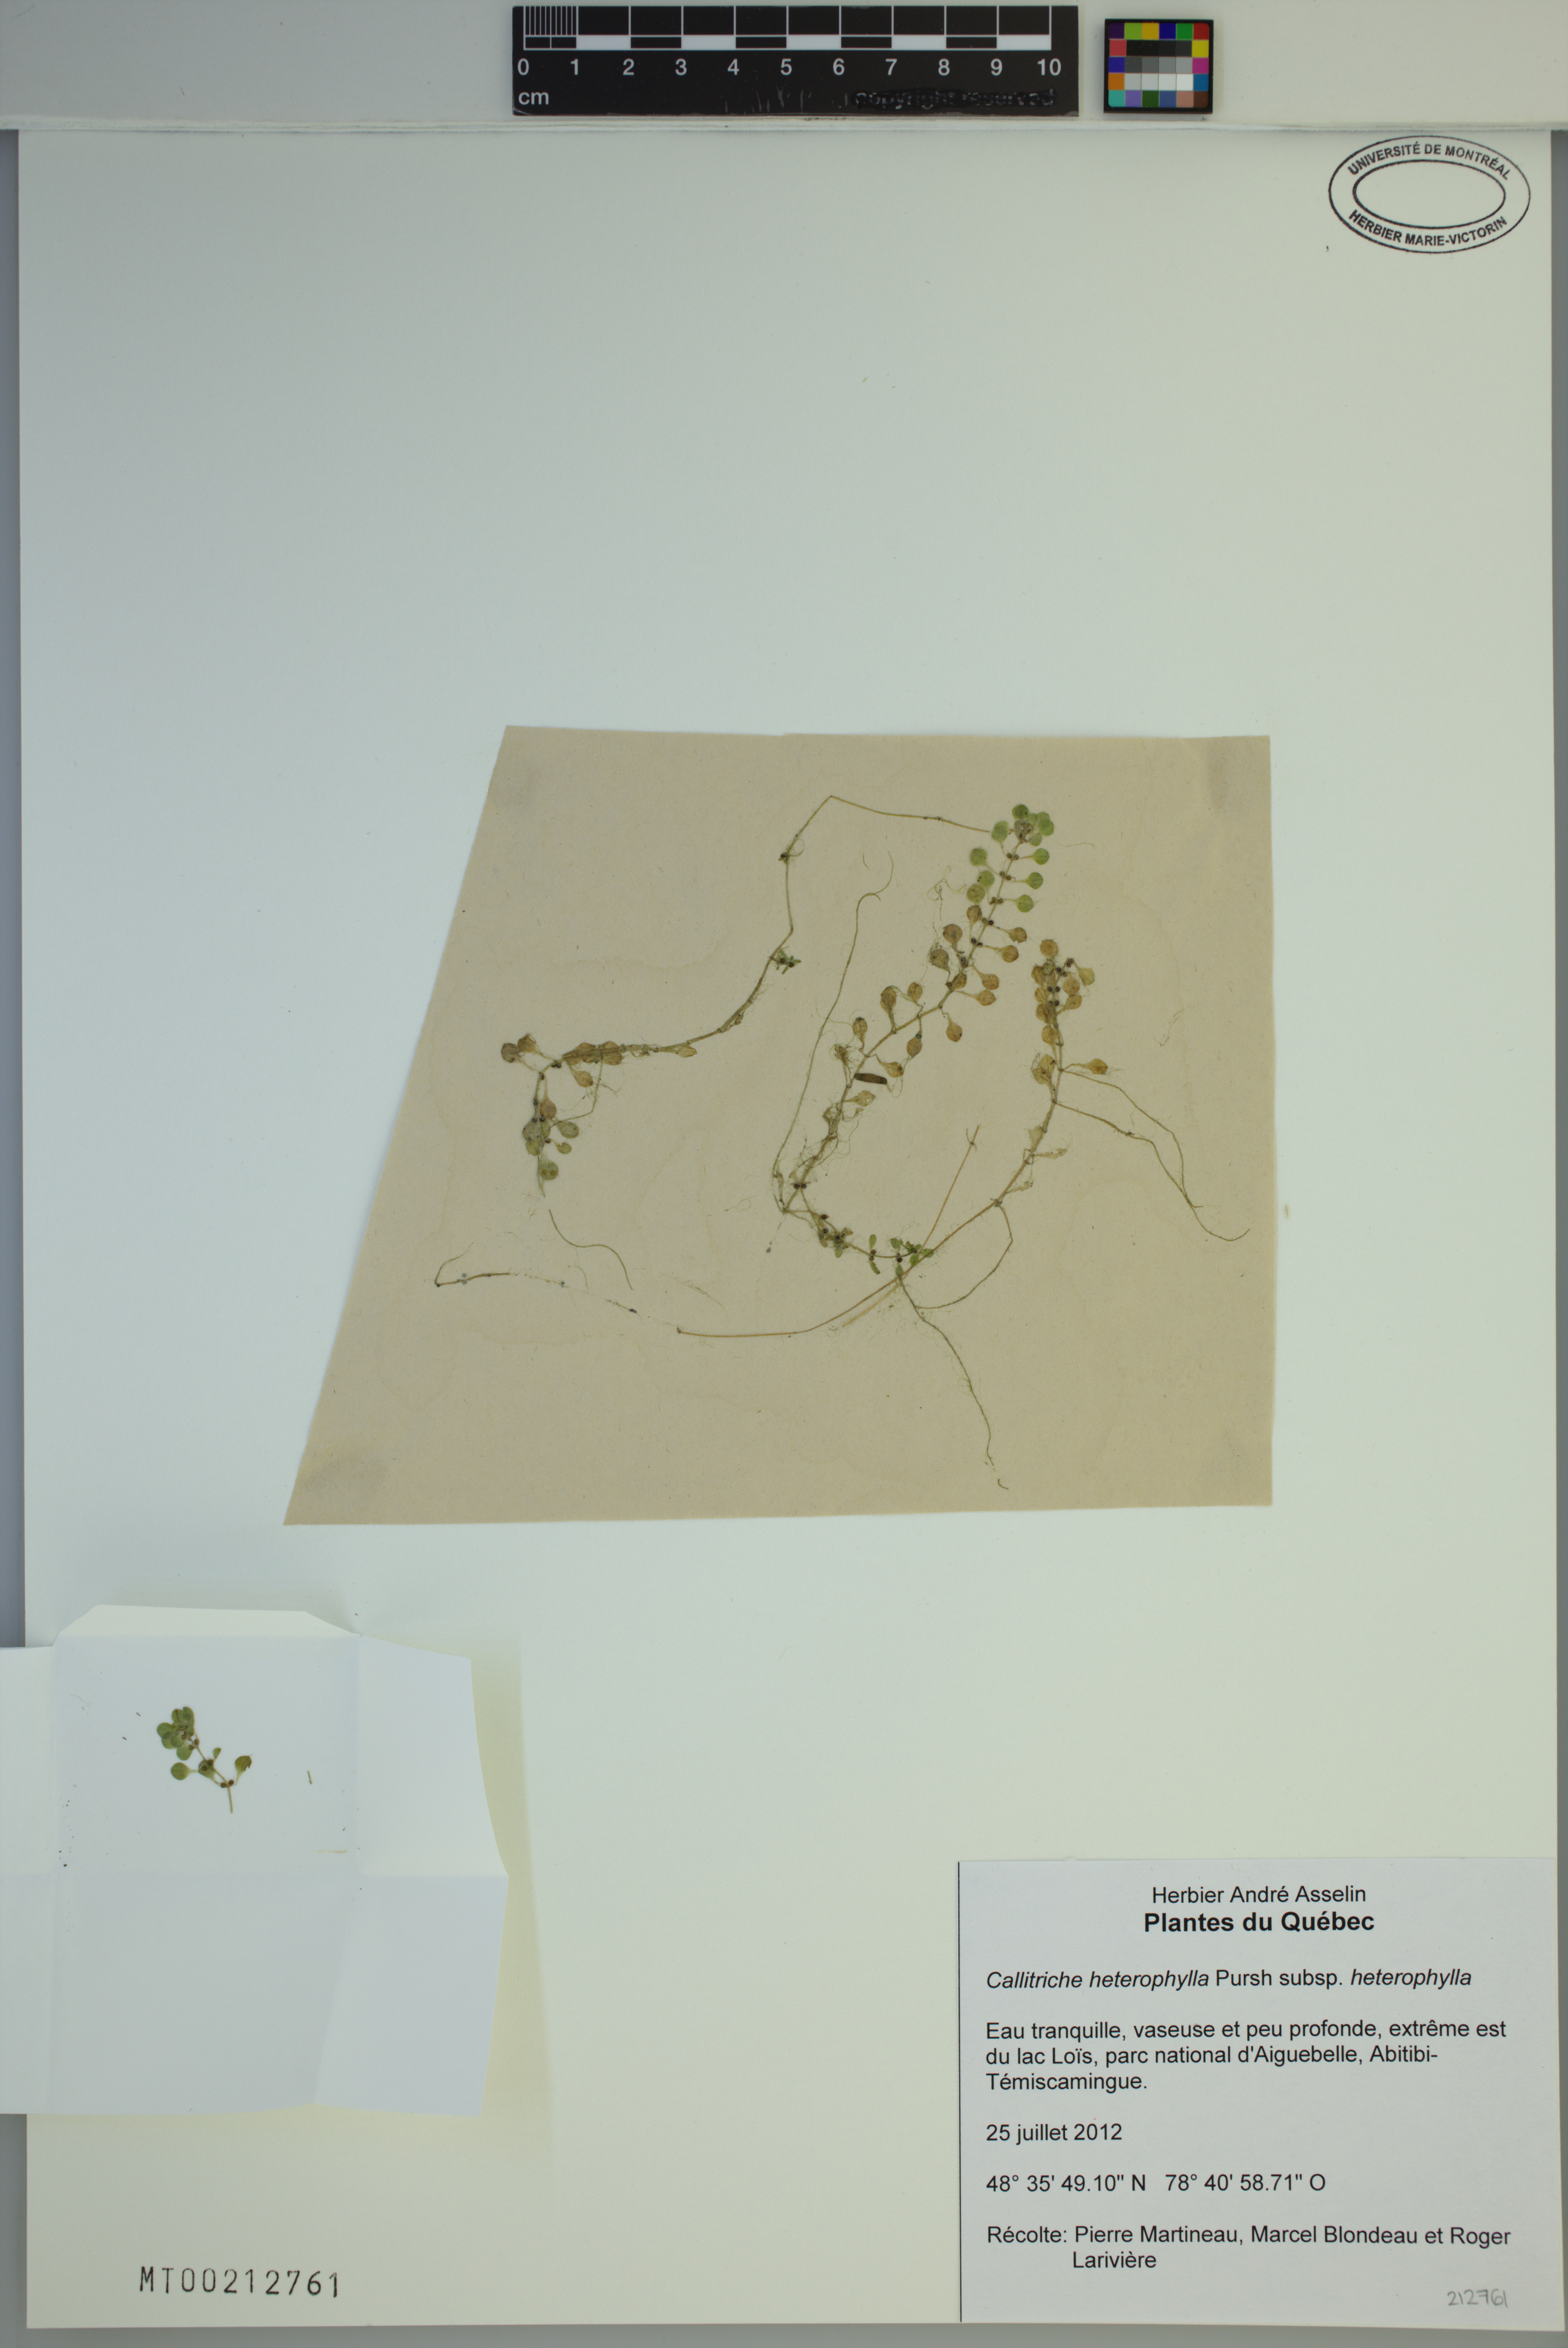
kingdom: Plantae
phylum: Tracheophyta
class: Magnoliopsida
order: Lamiales
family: Plantaginaceae
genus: Callitriche
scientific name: Callitriche heterophylla
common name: Two-headed water-starwort
